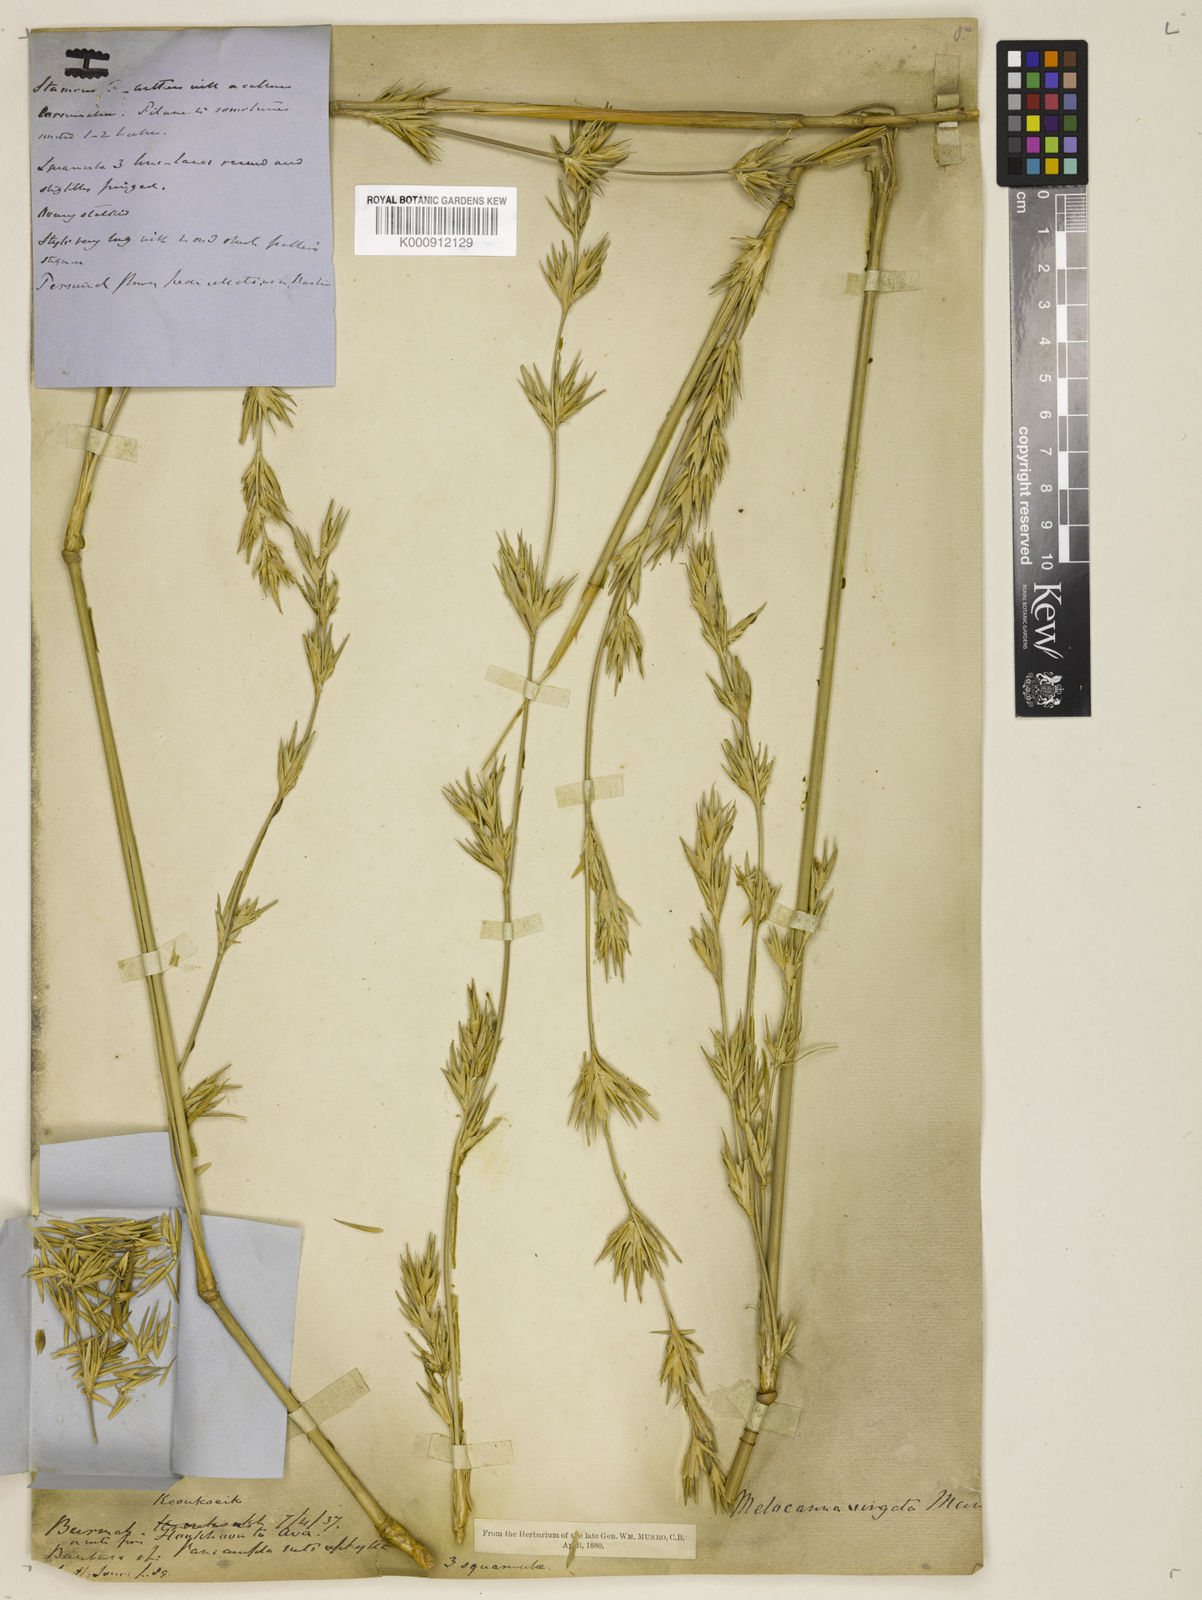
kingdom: Plantae
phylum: Tracheophyta
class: Liliopsida
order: Poales
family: Poaceae
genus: Schizostachyum
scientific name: Schizostachyum virgatum
